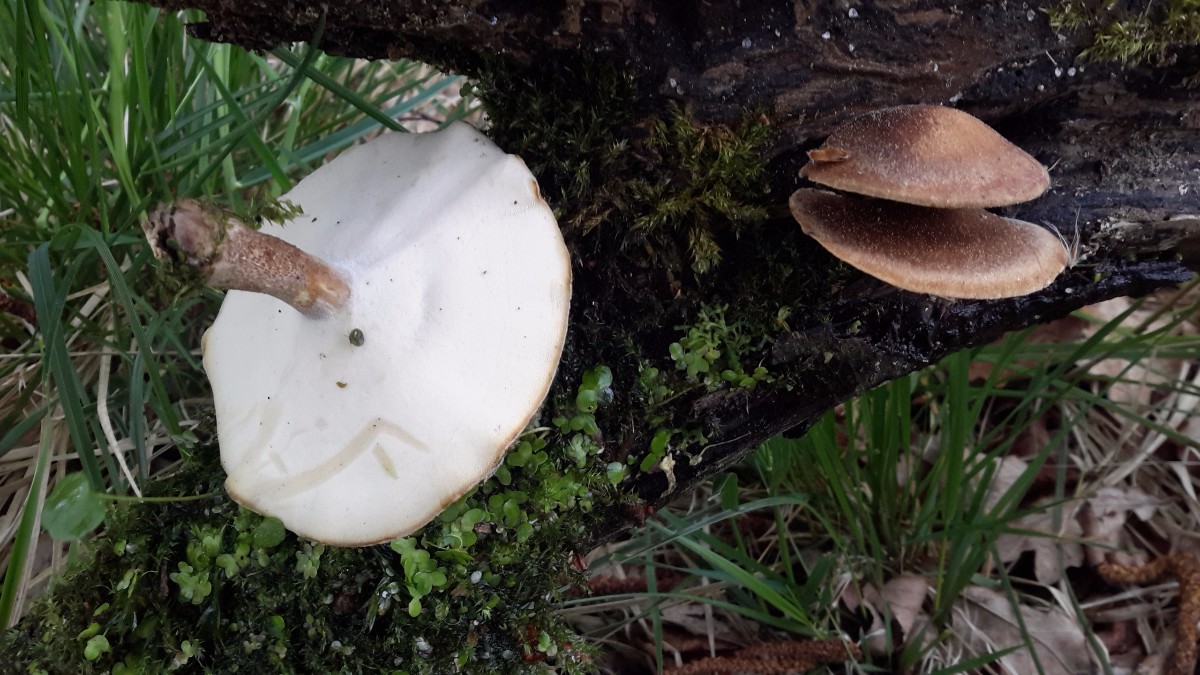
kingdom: Fungi
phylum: Basidiomycota
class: Agaricomycetes
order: Polyporales
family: Polyporaceae
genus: Lentinus
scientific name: Lentinus substrictus
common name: forårs-stilkporesvamp
